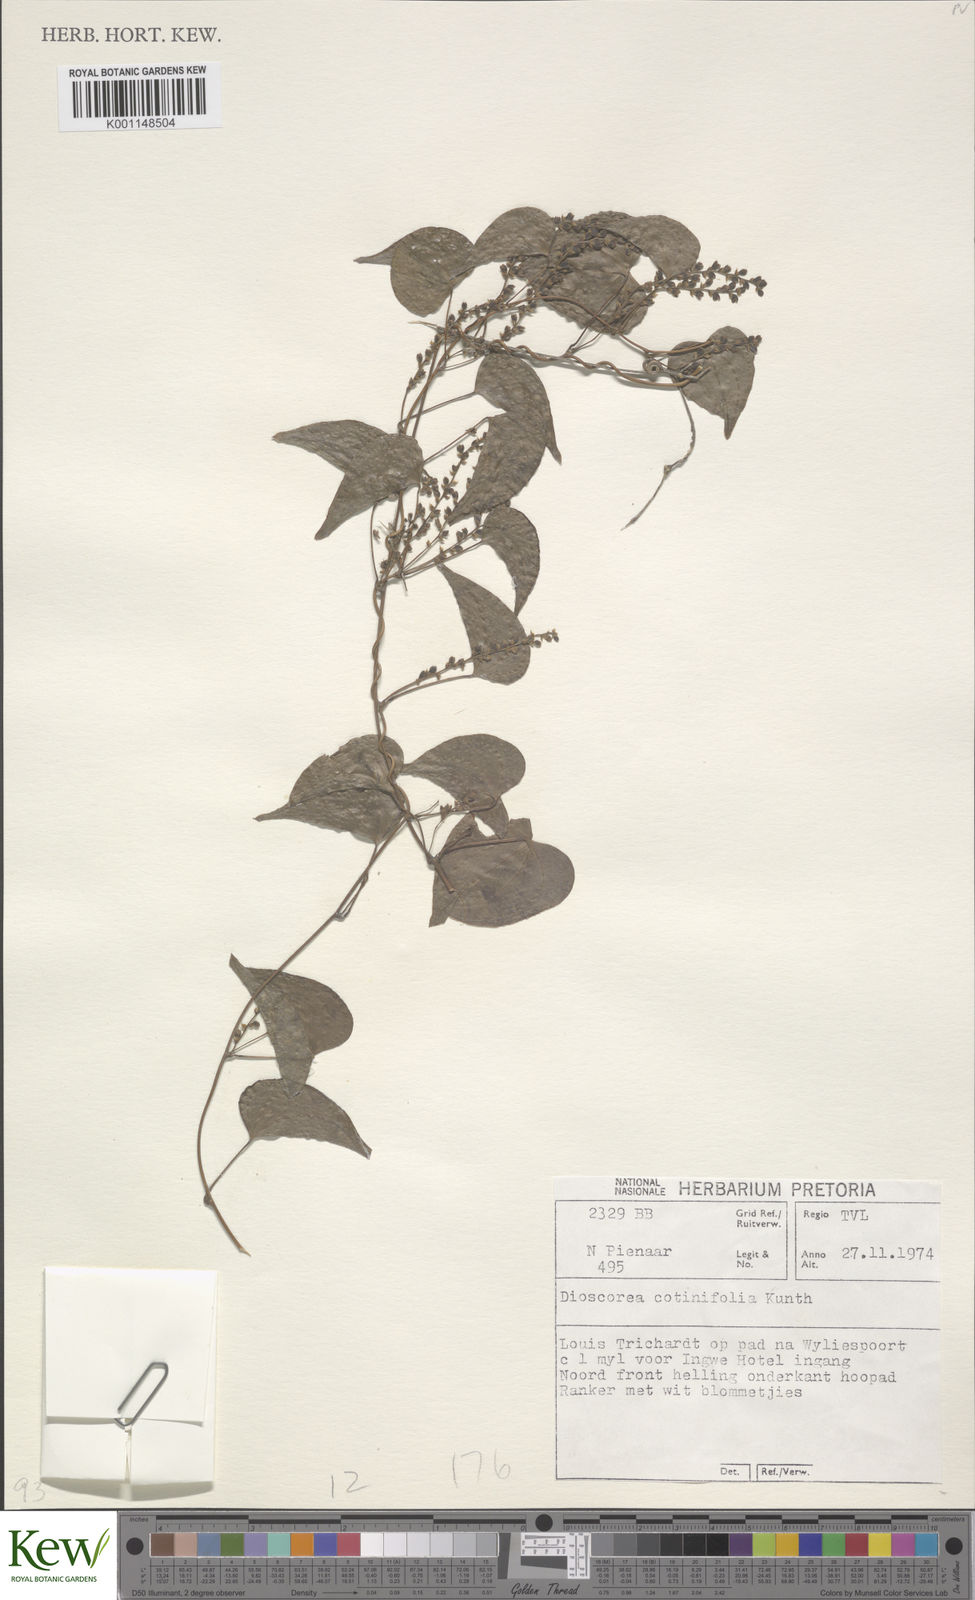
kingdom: Plantae
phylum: Tracheophyta
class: Liliopsida
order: Dioscoreales
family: Dioscoreaceae
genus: Dioscorea
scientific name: Dioscorea cotinifolia
